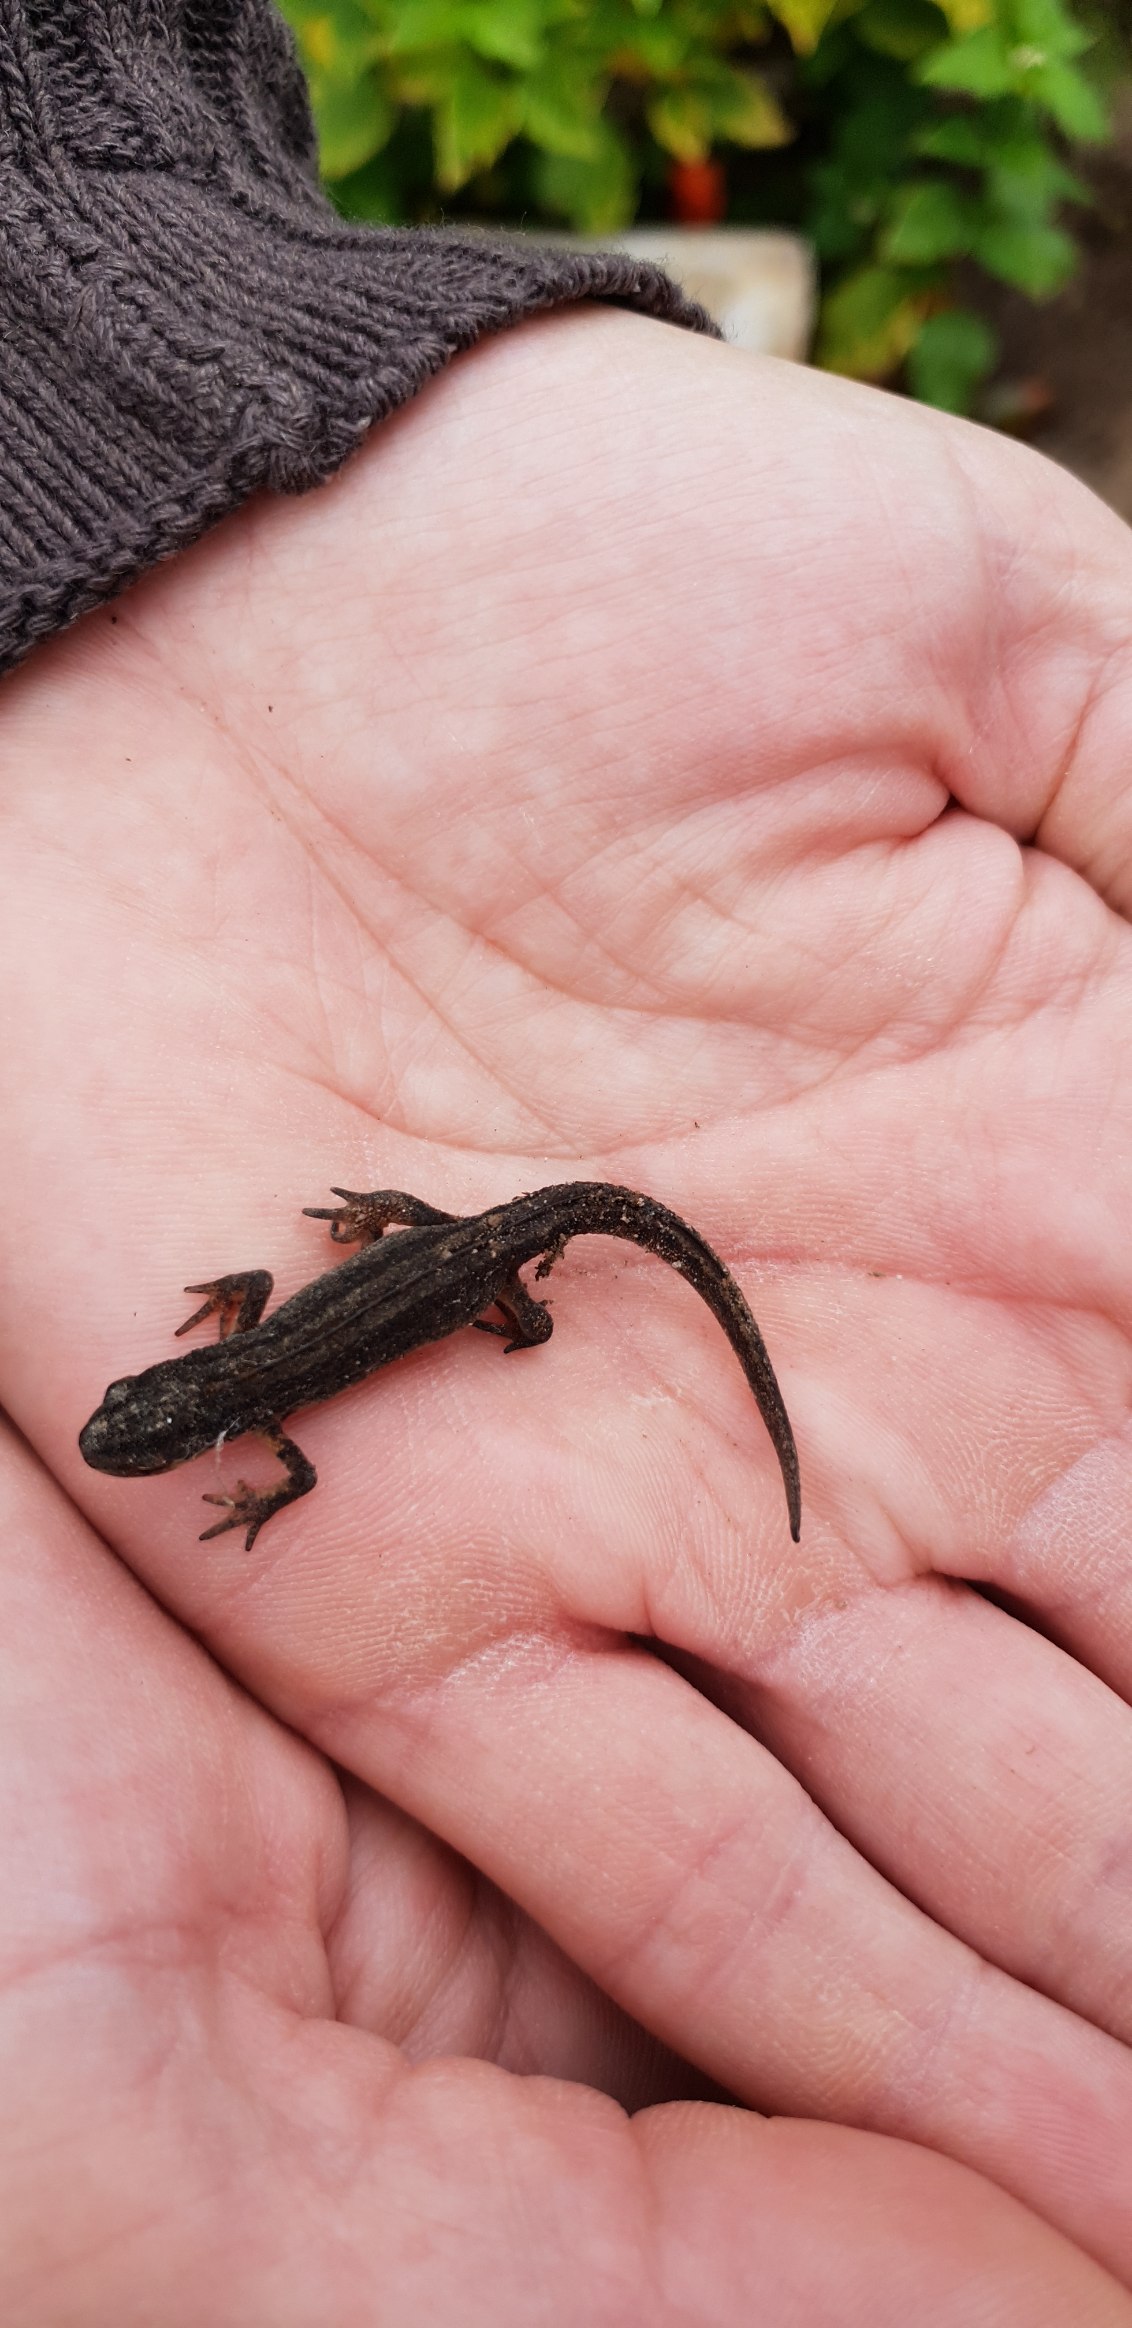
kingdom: Animalia
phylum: Chordata
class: Amphibia
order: Caudata
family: Salamandridae
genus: Lissotriton
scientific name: Lissotriton vulgaris
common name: Lille vandsalamander
